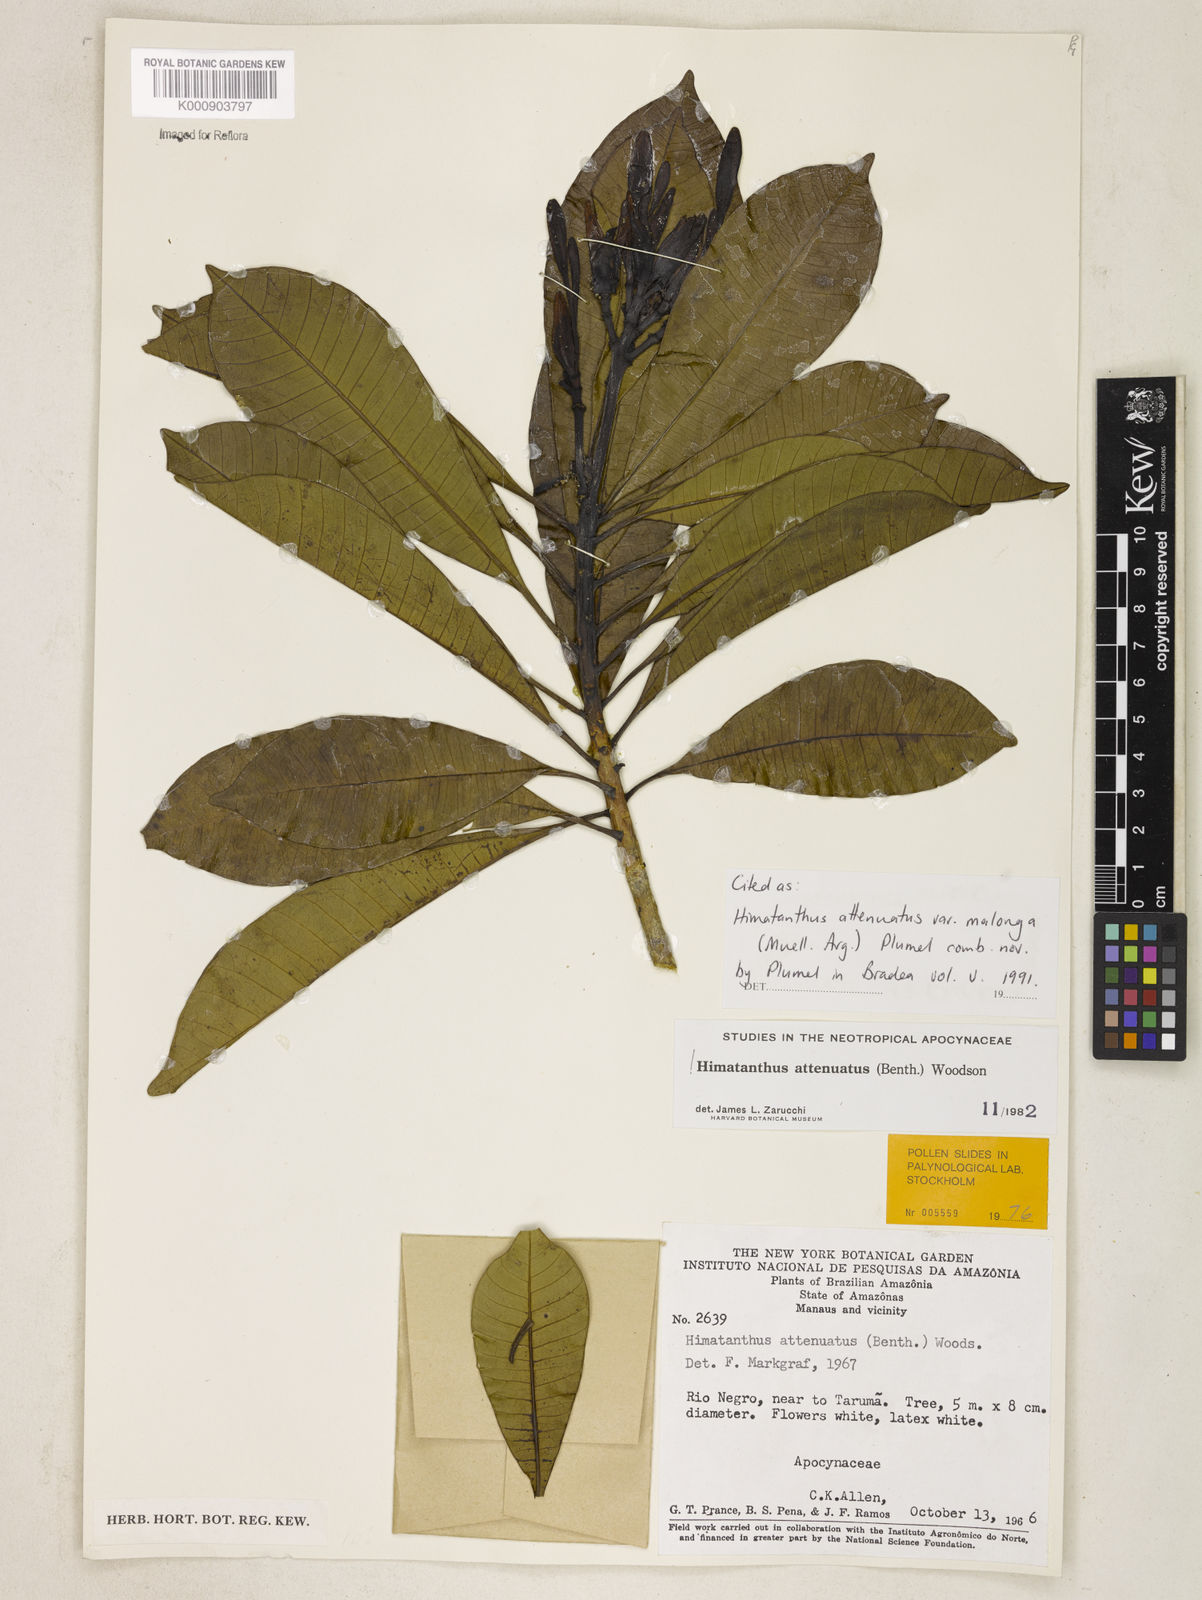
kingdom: Plantae
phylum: Tracheophyta
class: Magnoliopsida
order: Gentianales
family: Apocynaceae
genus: Himatanthus
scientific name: Himatanthus
